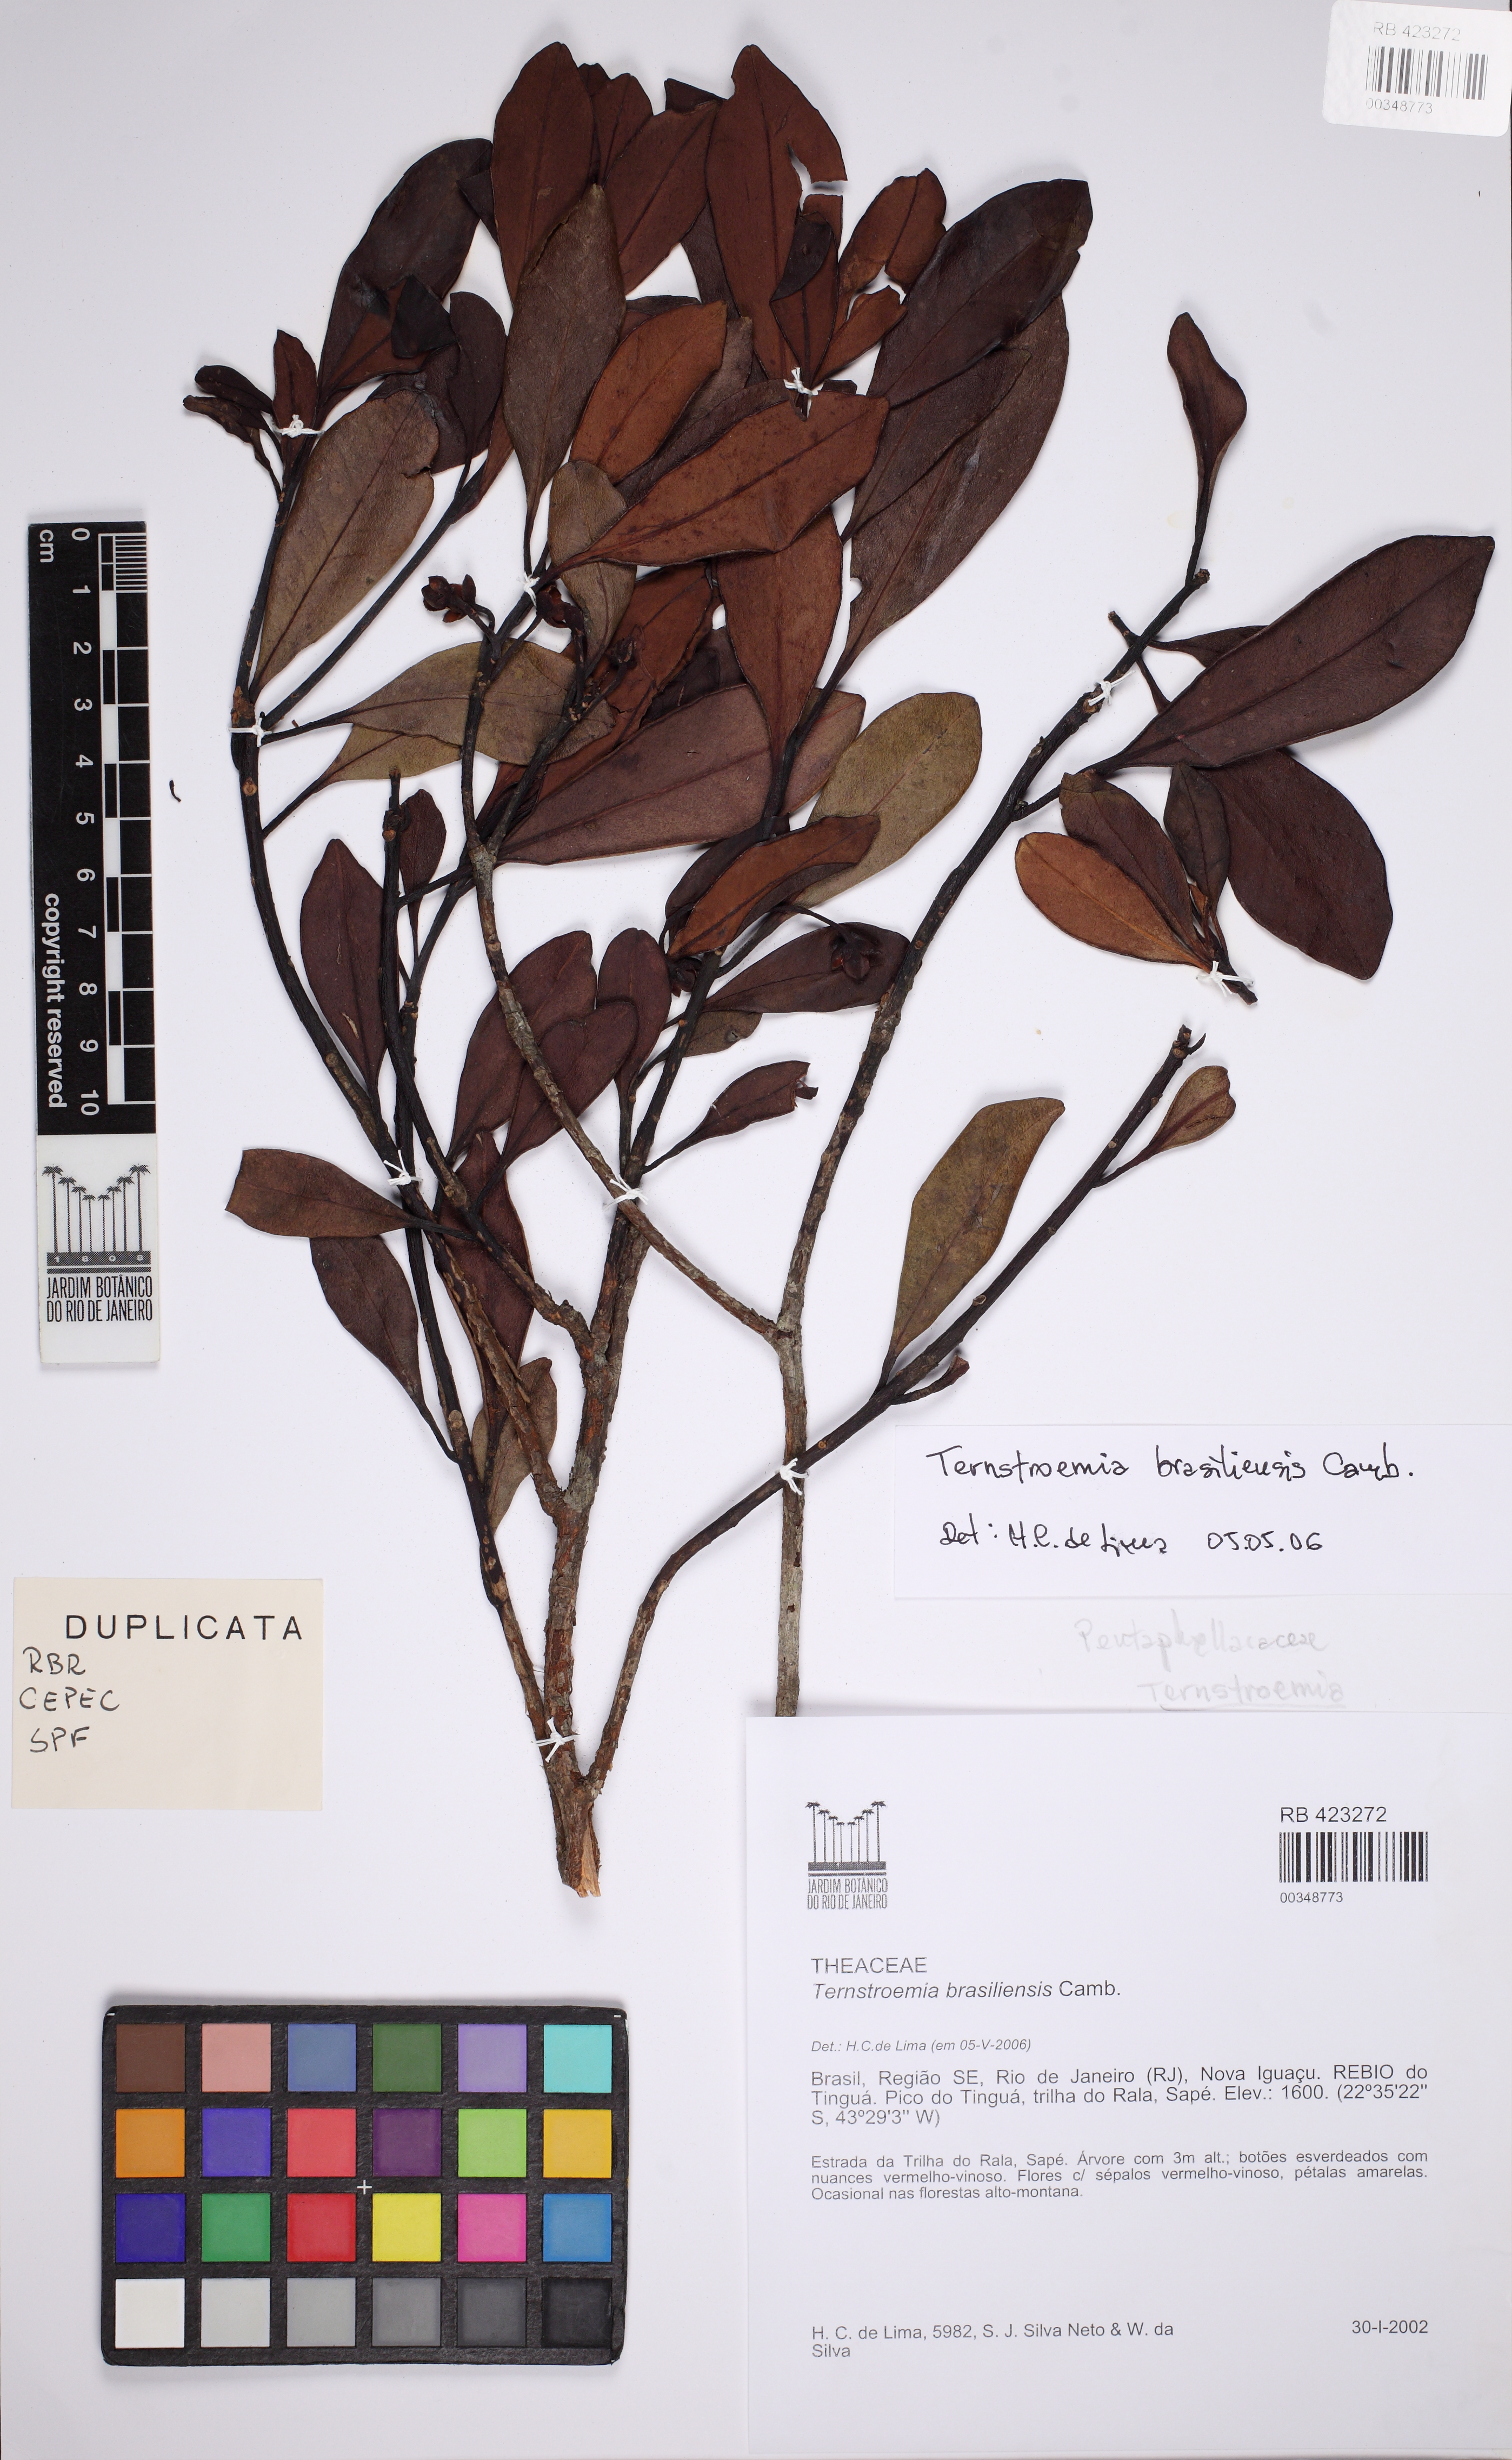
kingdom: Plantae
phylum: Tracheophyta
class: Magnoliopsida
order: Ericales
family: Pentaphylacaceae
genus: Ternstroemia
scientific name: Ternstroemia brasiliensis
